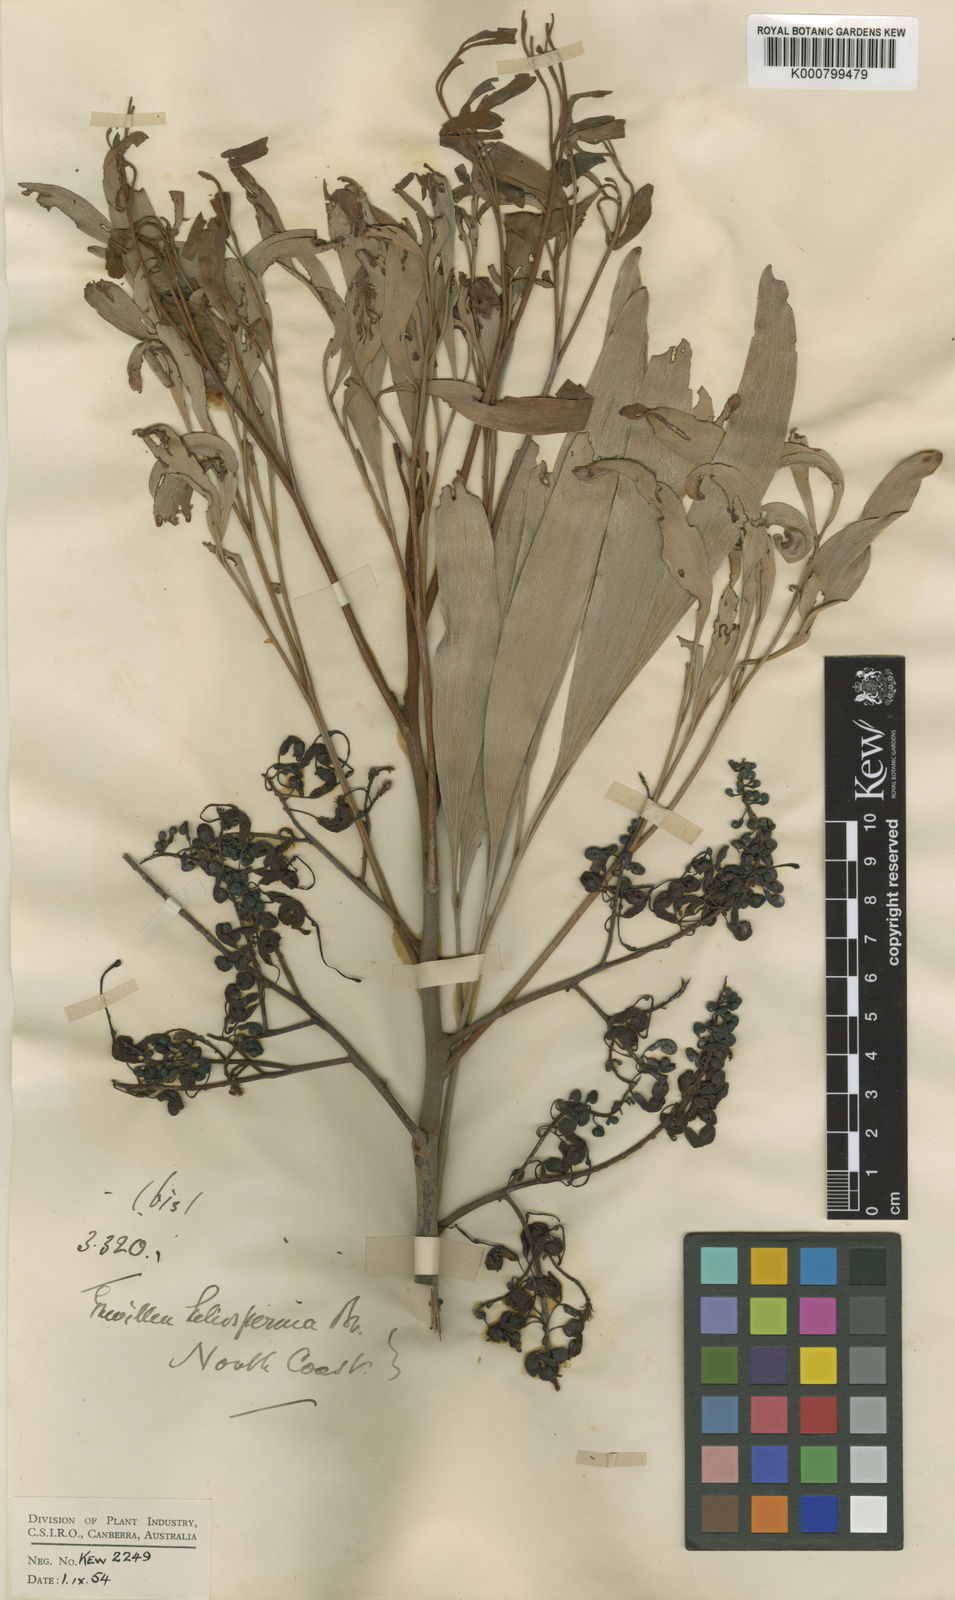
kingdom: Plantae
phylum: Tracheophyta
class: Magnoliopsida
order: Proteales
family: Proteaceae
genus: Grevillea
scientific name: Grevillea heliosperma
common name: Rock grevillea
